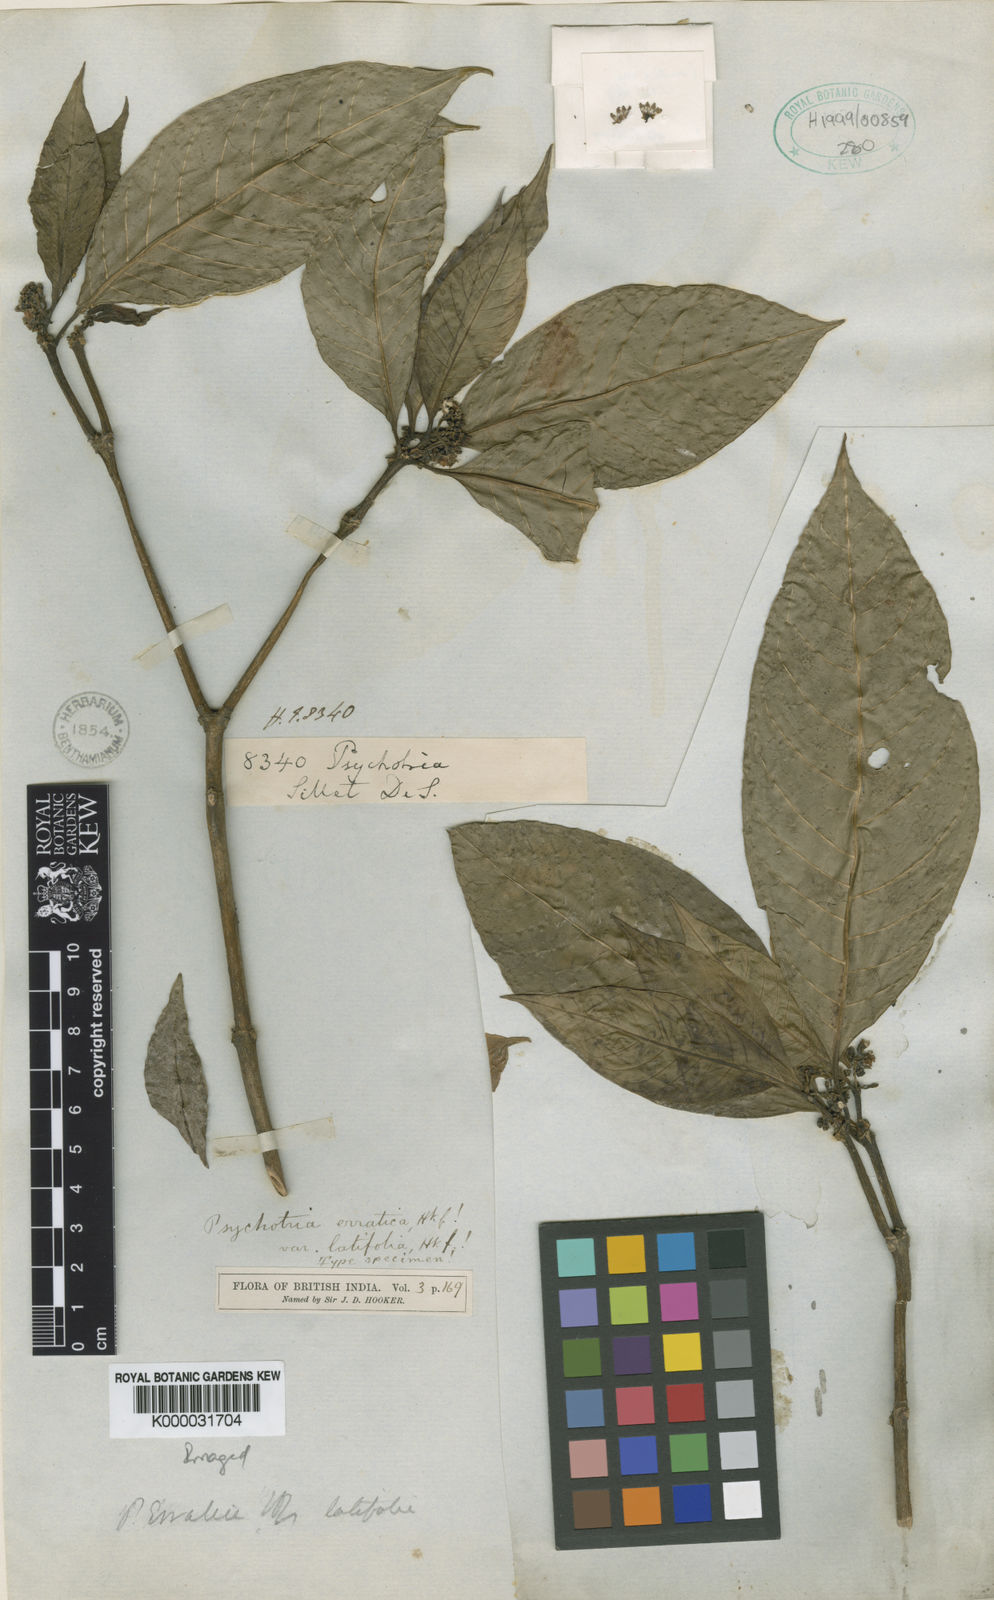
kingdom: Plantae
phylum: Tracheophyta
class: Magnoliopsida
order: Gentianales
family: Rubiaceae
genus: Psychotria
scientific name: Psychotria erratica
